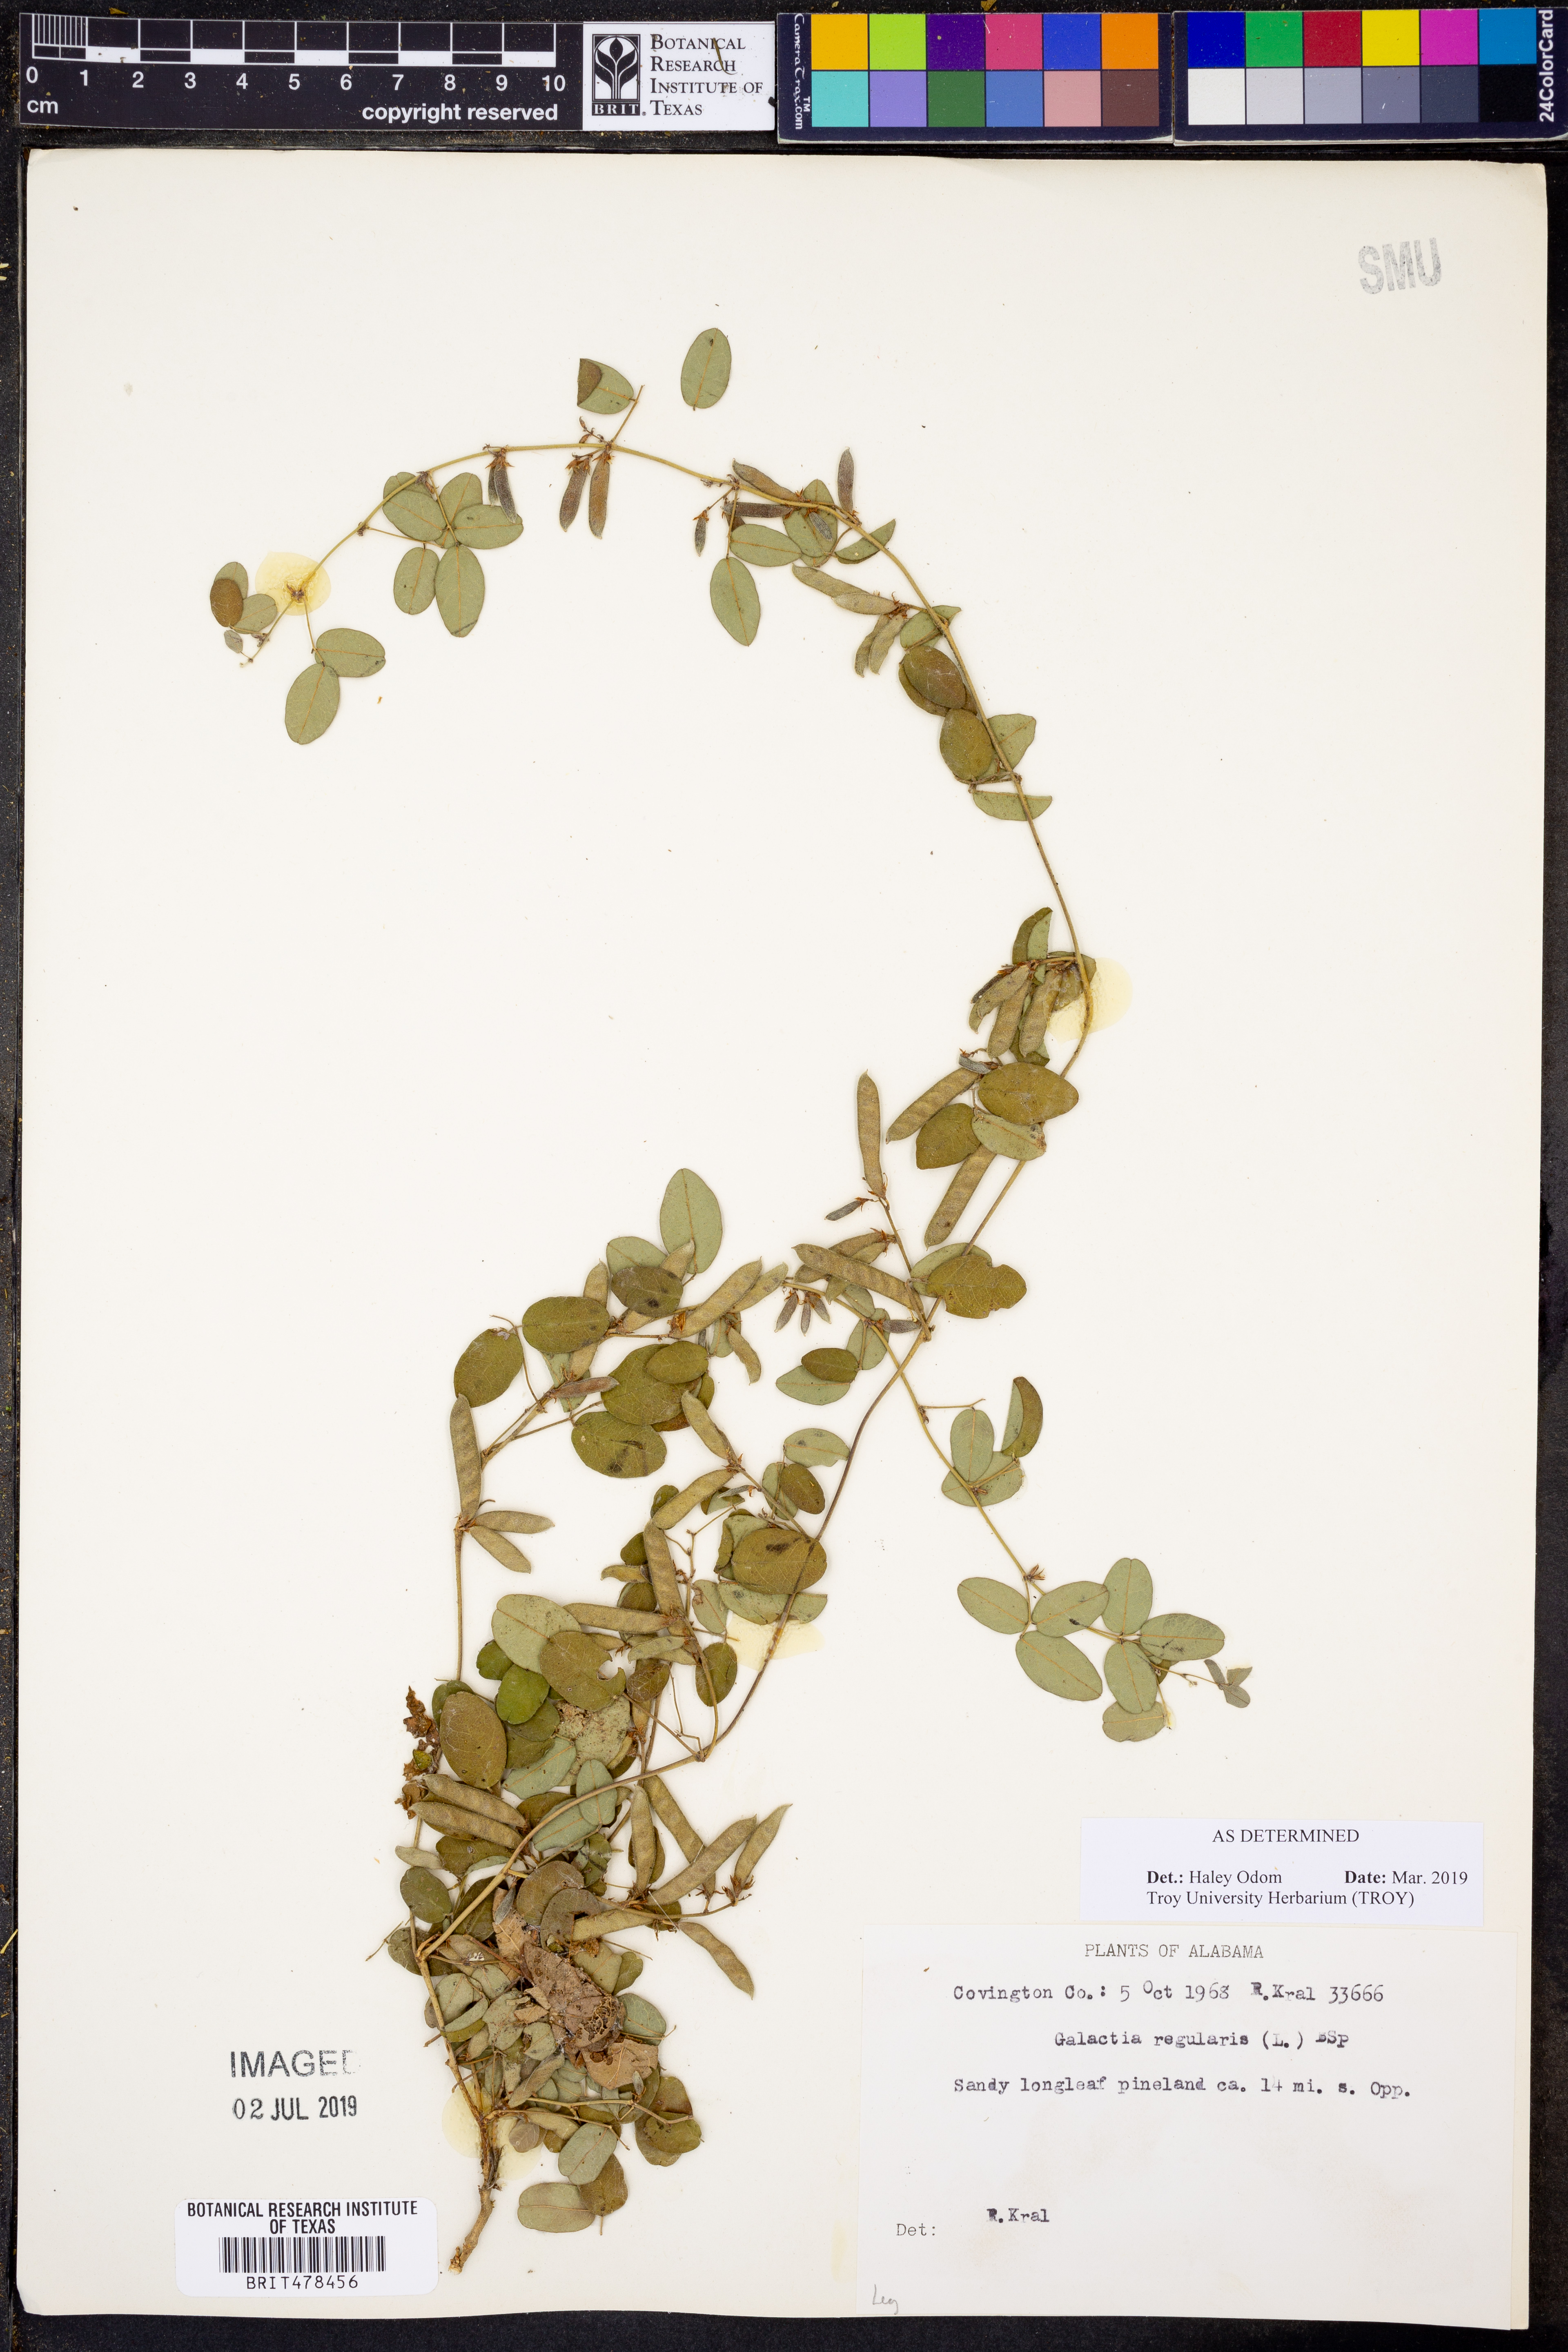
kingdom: Plantae
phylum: Tracheophyta
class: Magnoliopsida
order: Fabales
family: Fabaceae
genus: Galactia
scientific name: Galactia regularis
